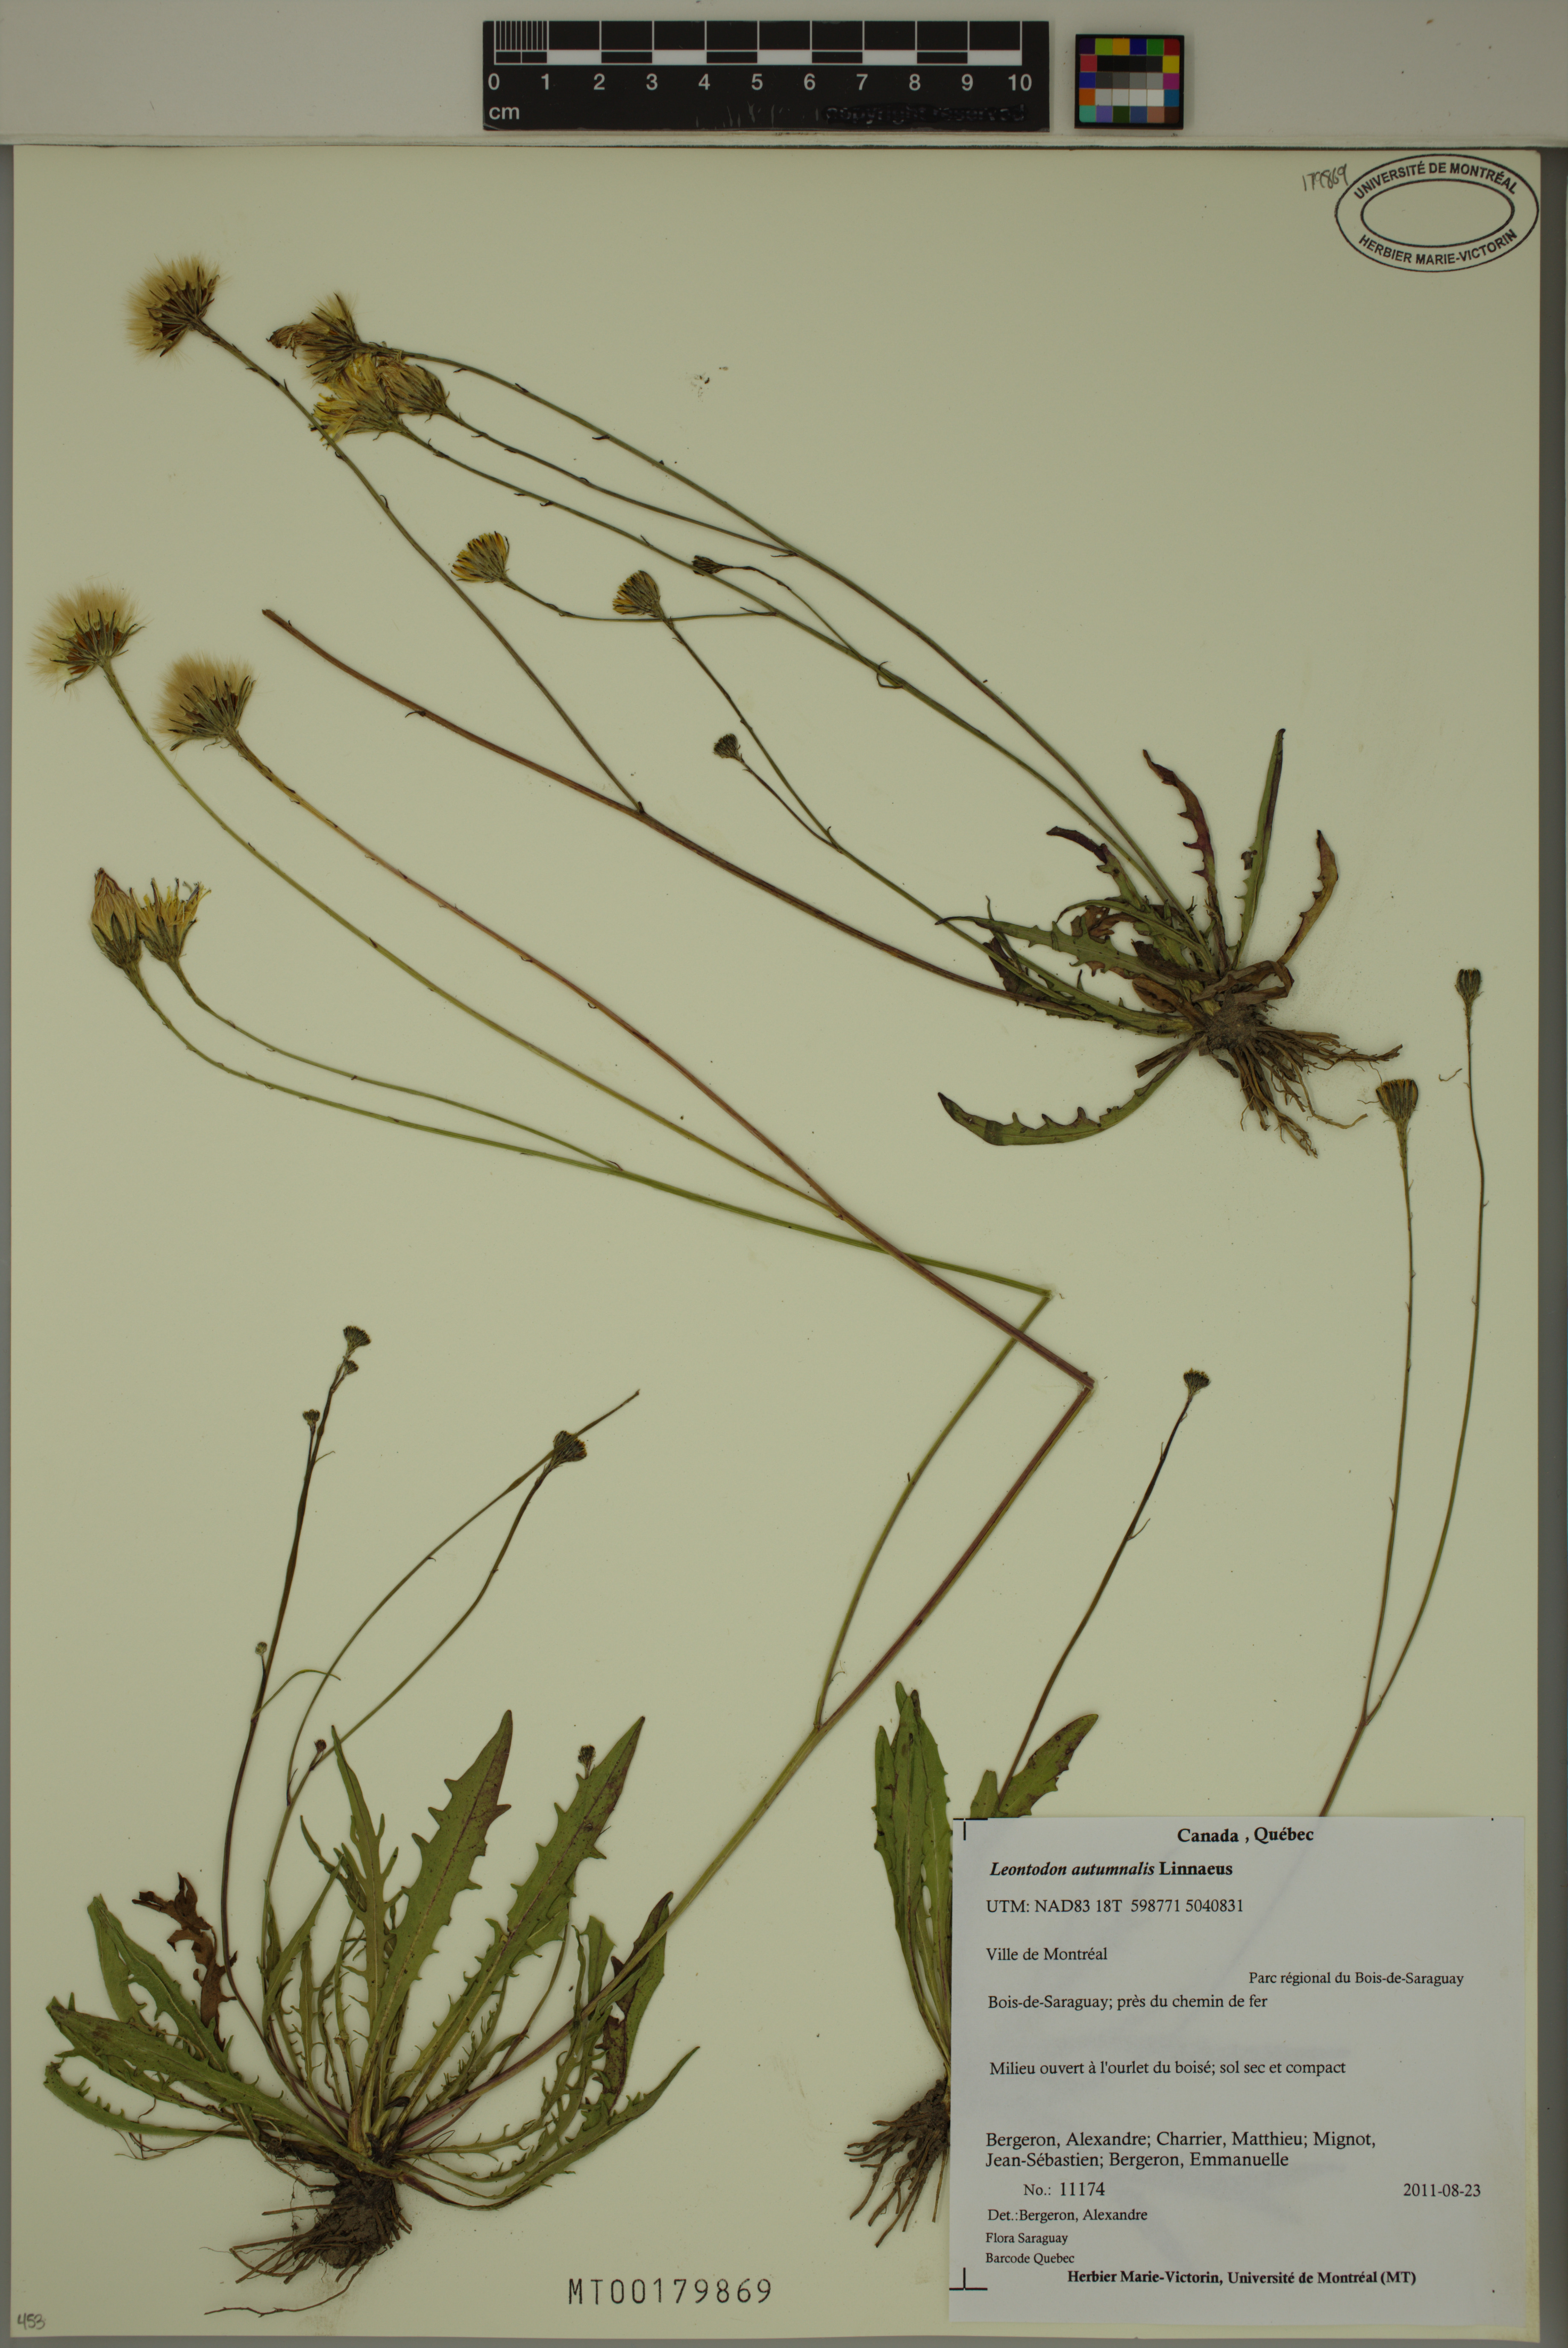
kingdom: Plantae
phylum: Tracheophyta
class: Magnoliopsida
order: Asterales
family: Asteraceae
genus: Scorzoneroides
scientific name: Scorzoneroides autumnalis
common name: Autumn hawkbit
